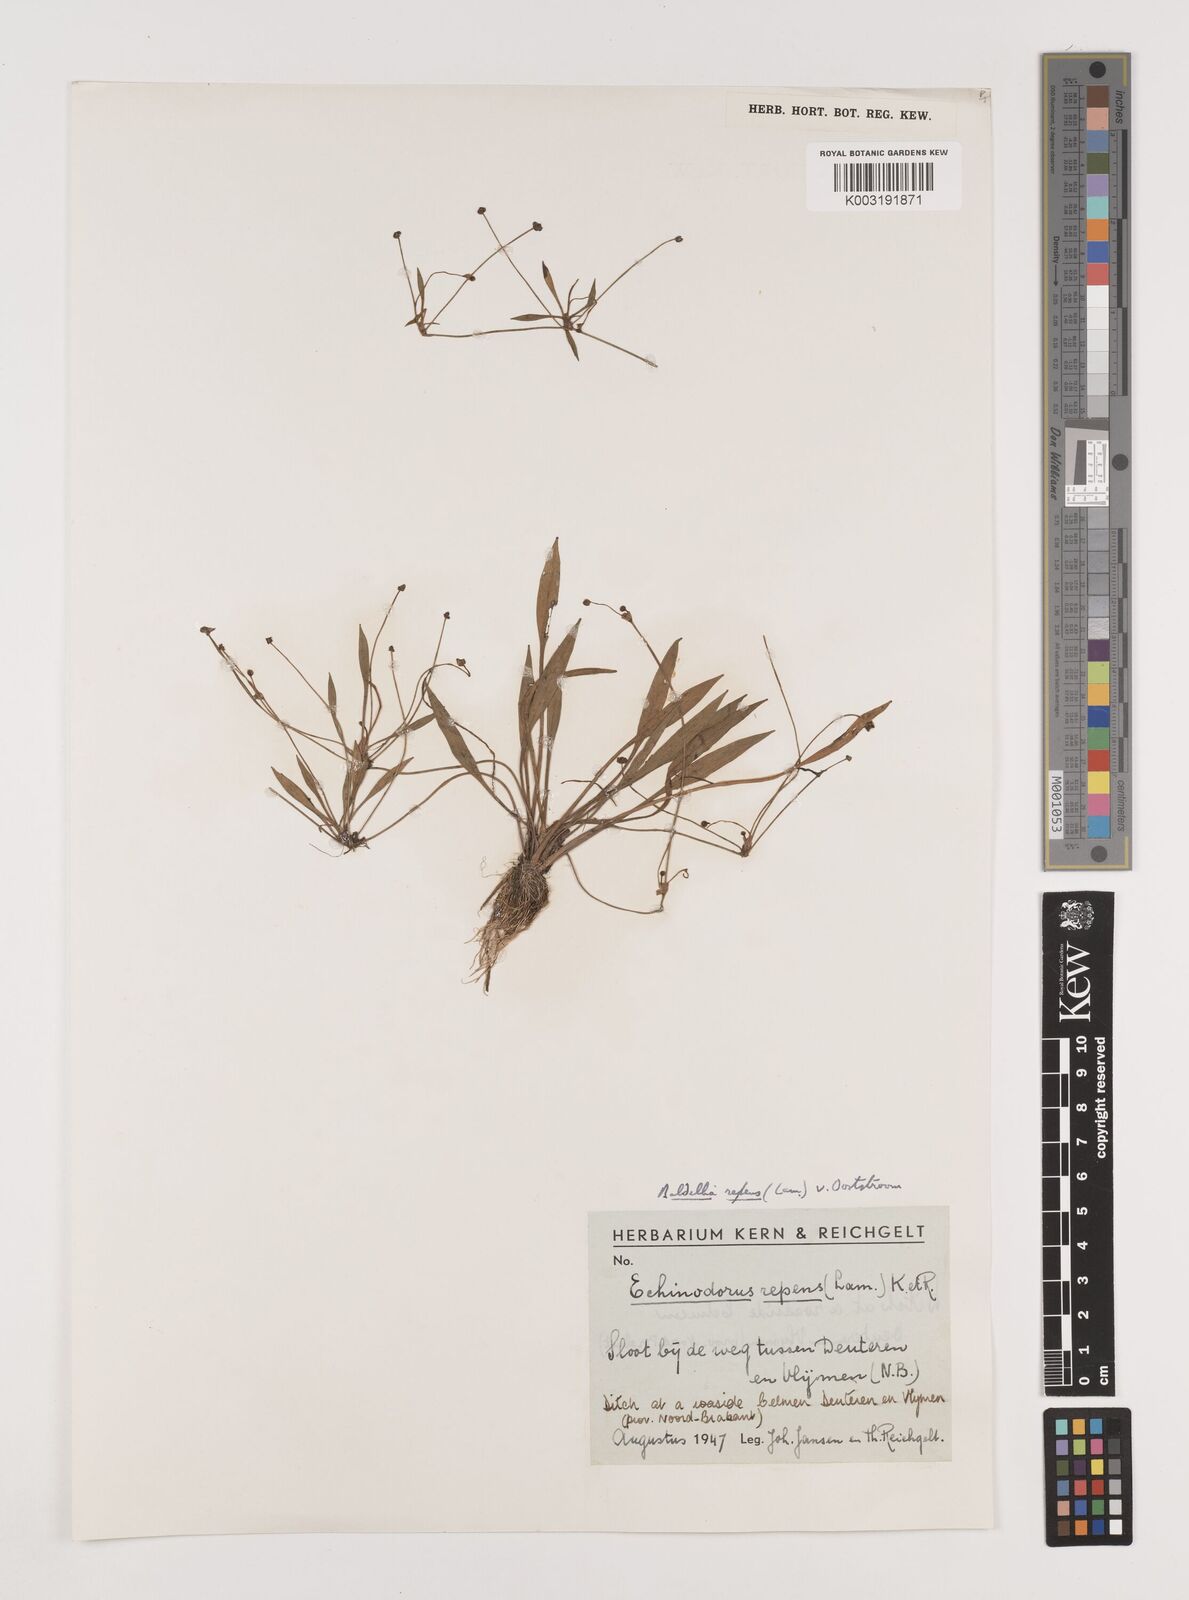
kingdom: Plantae
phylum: Tracheophyta
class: Liliopsida
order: Alismatales
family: Alismataceae
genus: Baldellia
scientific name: Baldellia repens
